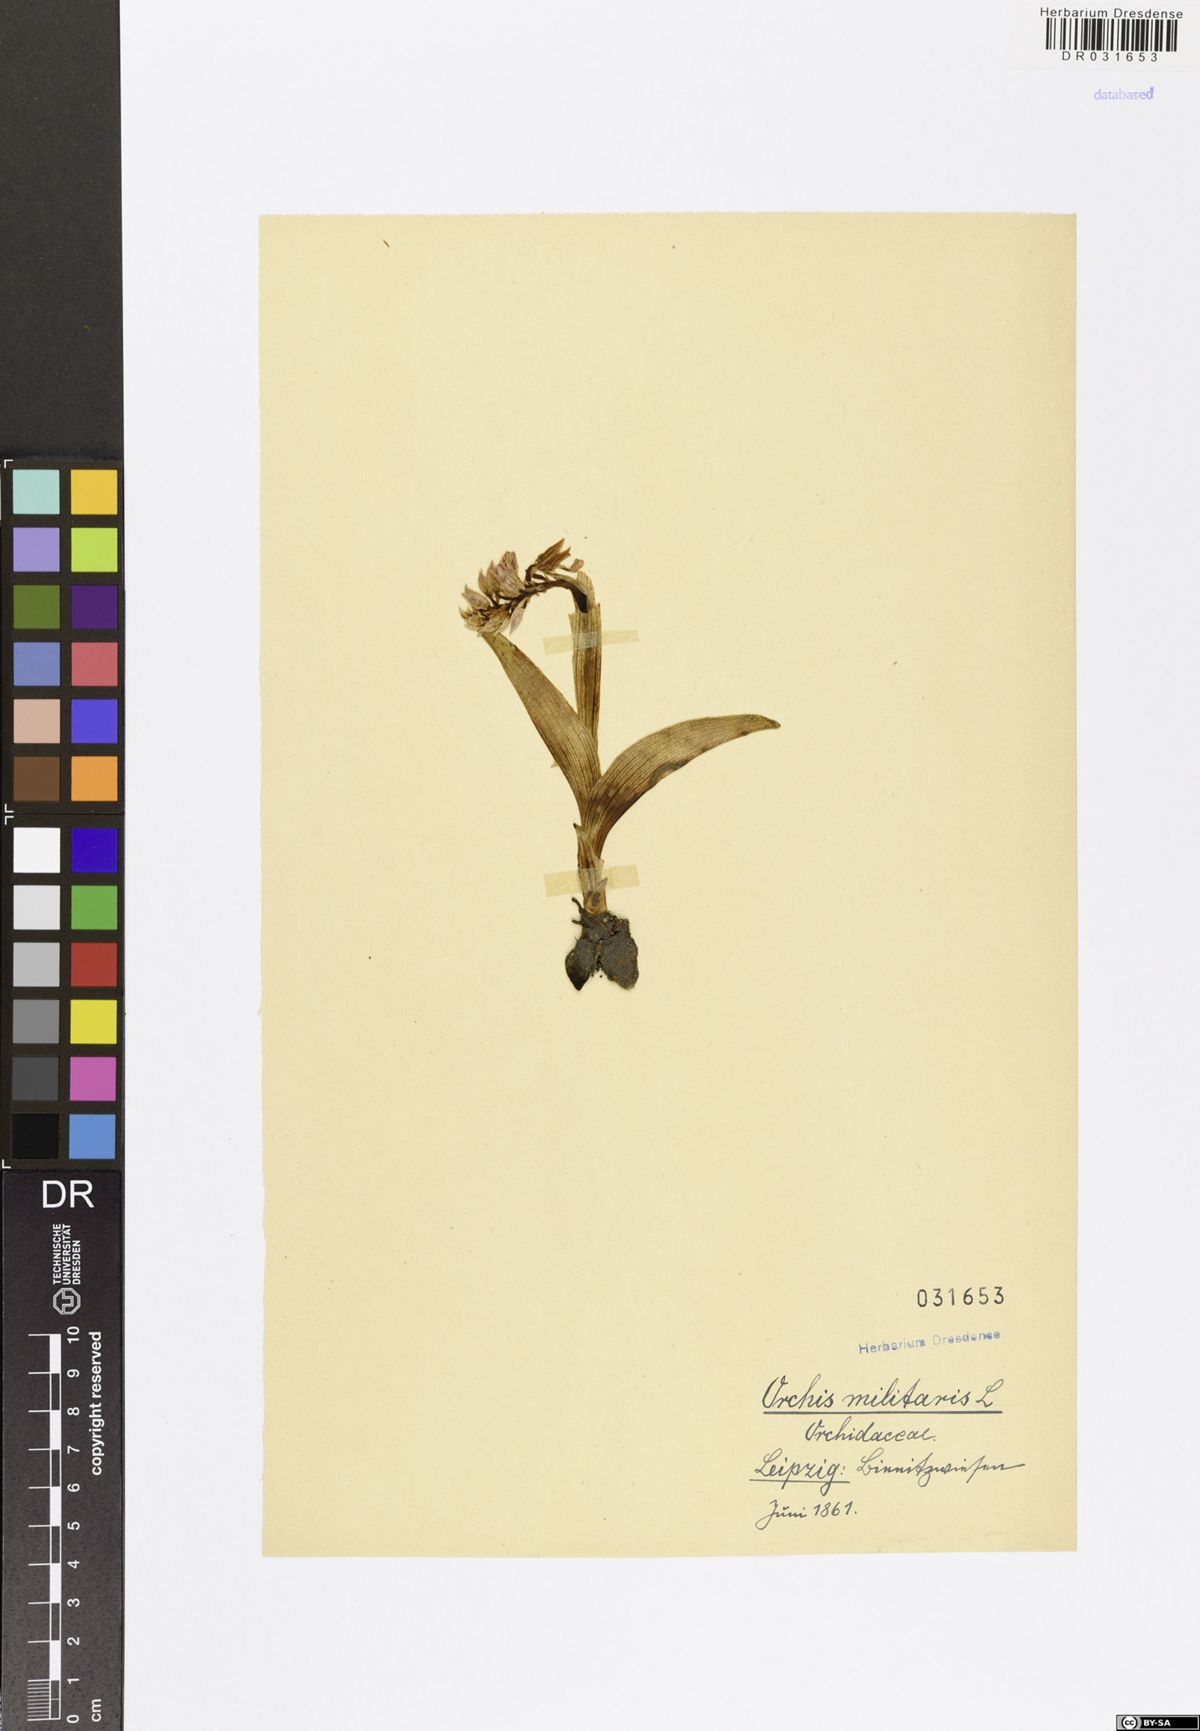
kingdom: Plantae
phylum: Tracheophyta
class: Liliopsida
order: Asparagales
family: Orchidaceae
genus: Orchis
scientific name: Orchis militaris
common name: Military orchid
